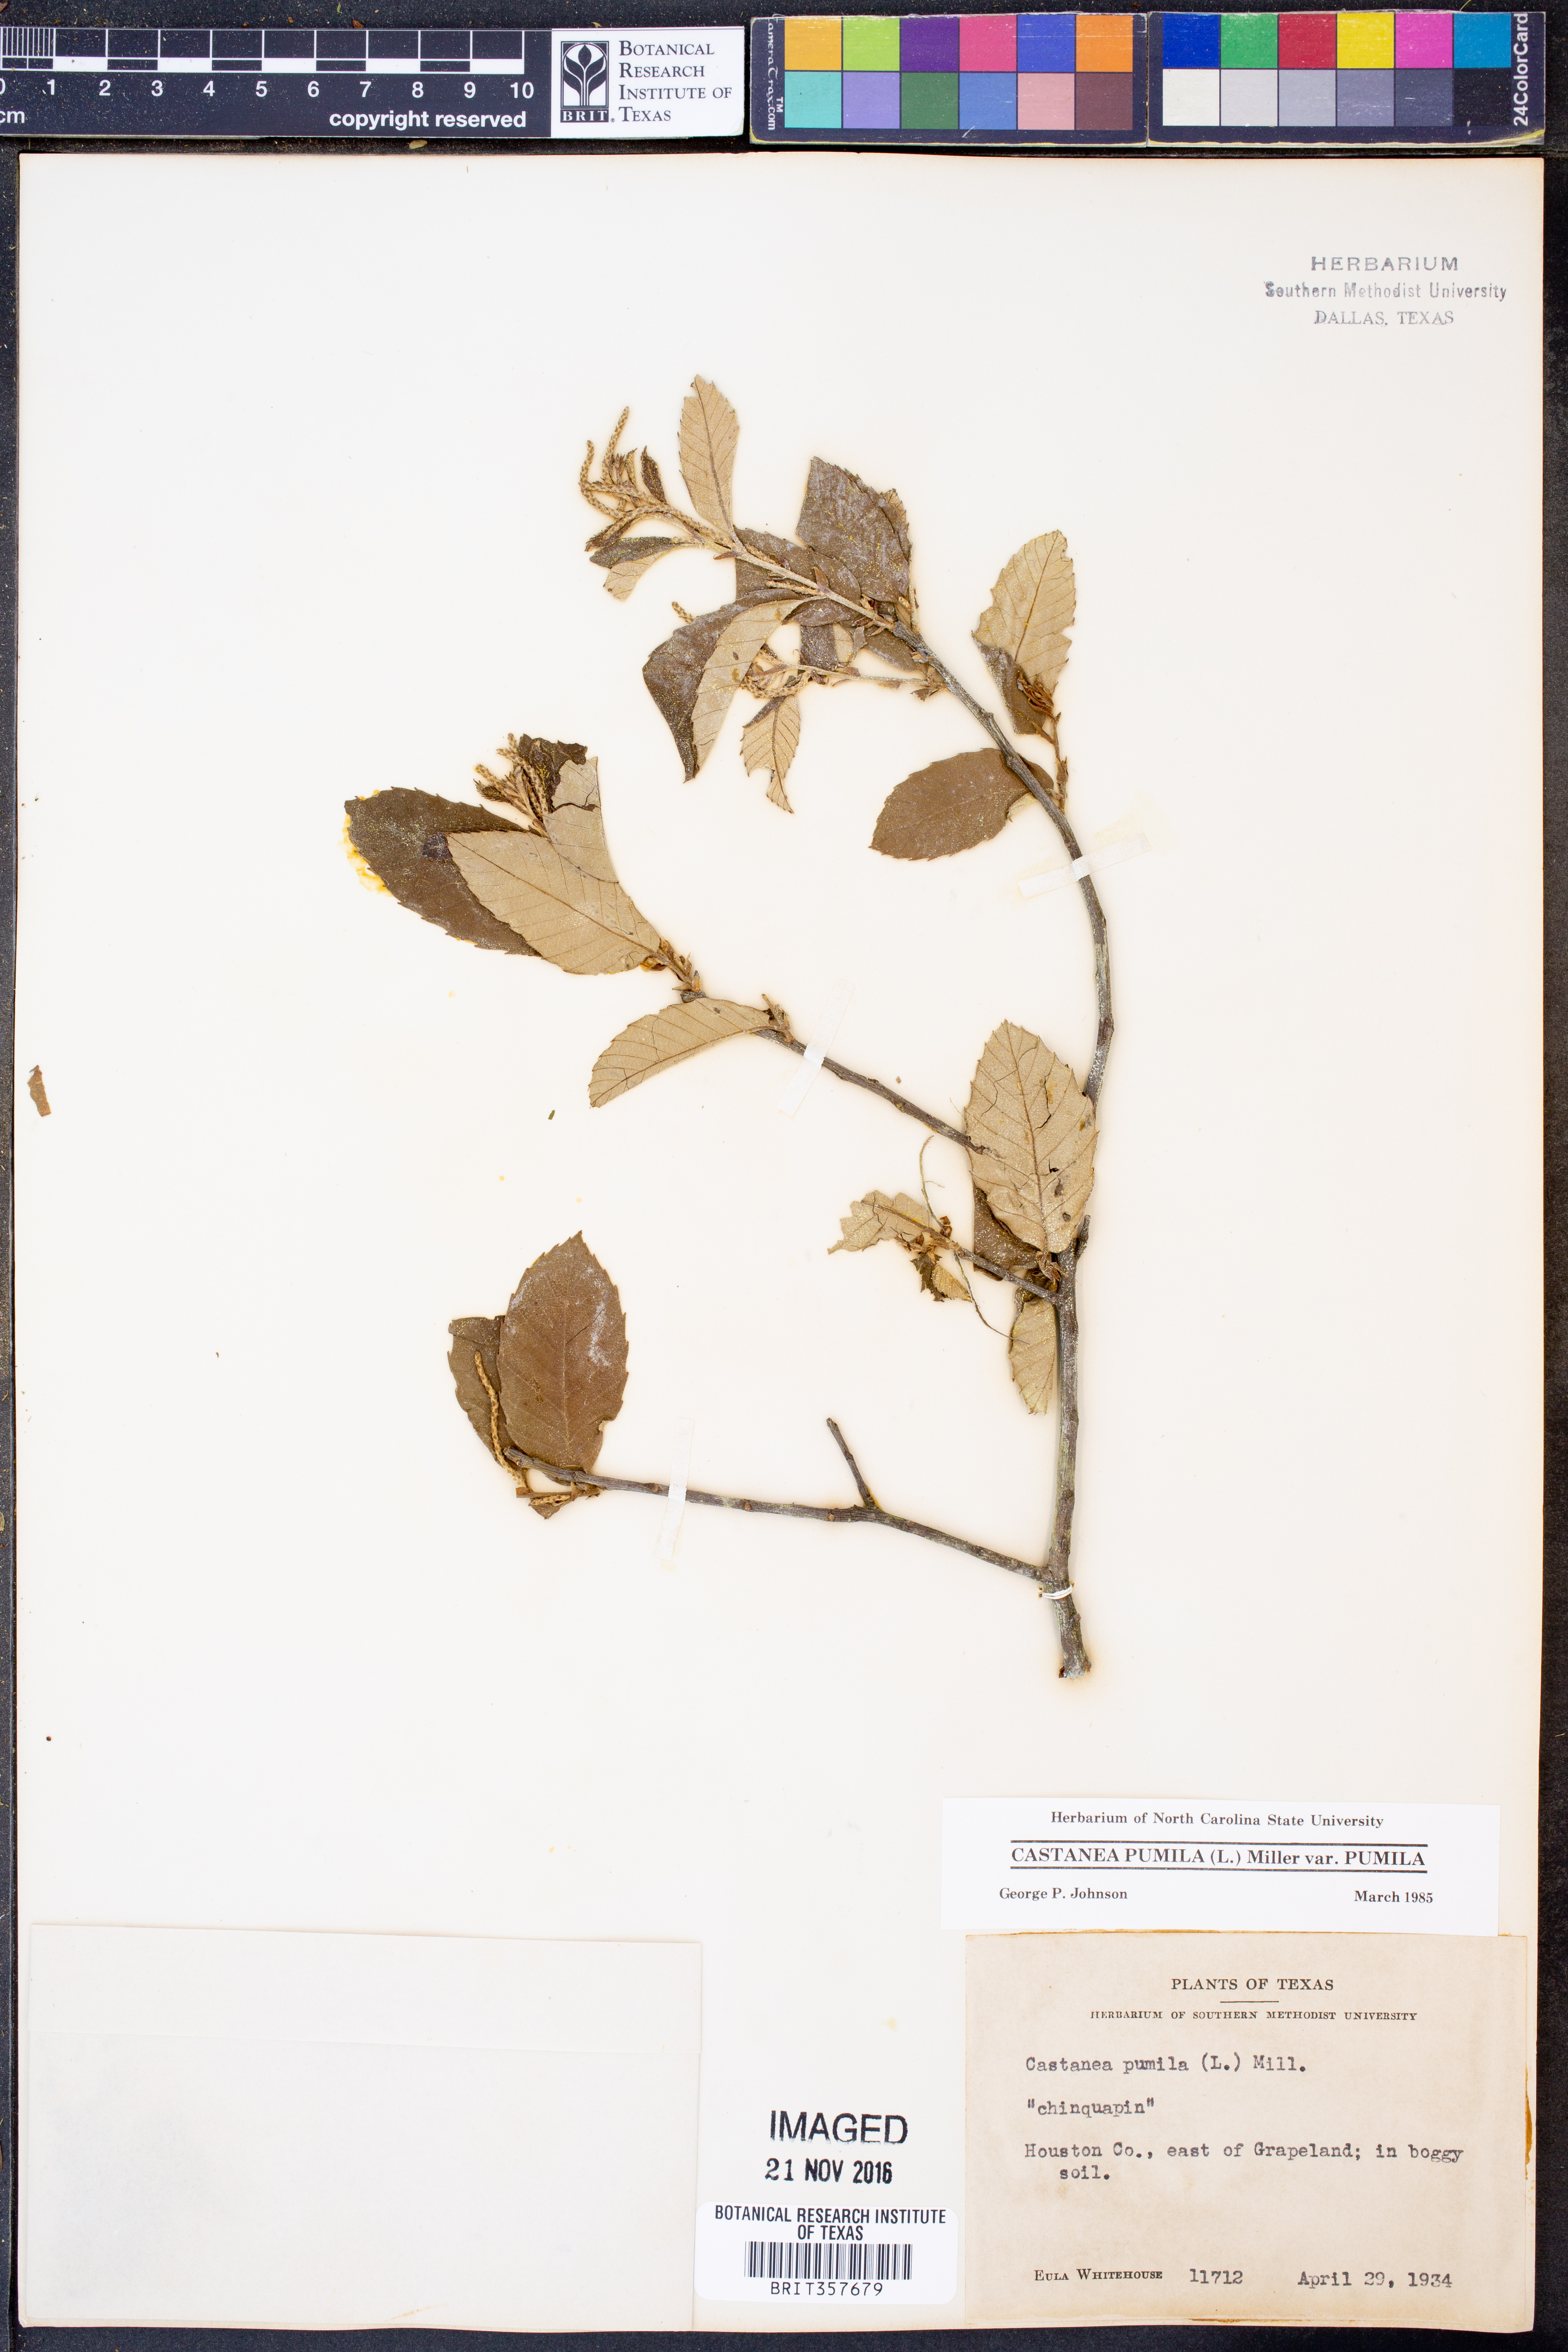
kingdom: Plantae
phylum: Tracheophyta
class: Magnoliopsida
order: Fagales
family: Fagaceae
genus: Castanea
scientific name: Castanea pumila
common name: Chinkapin
